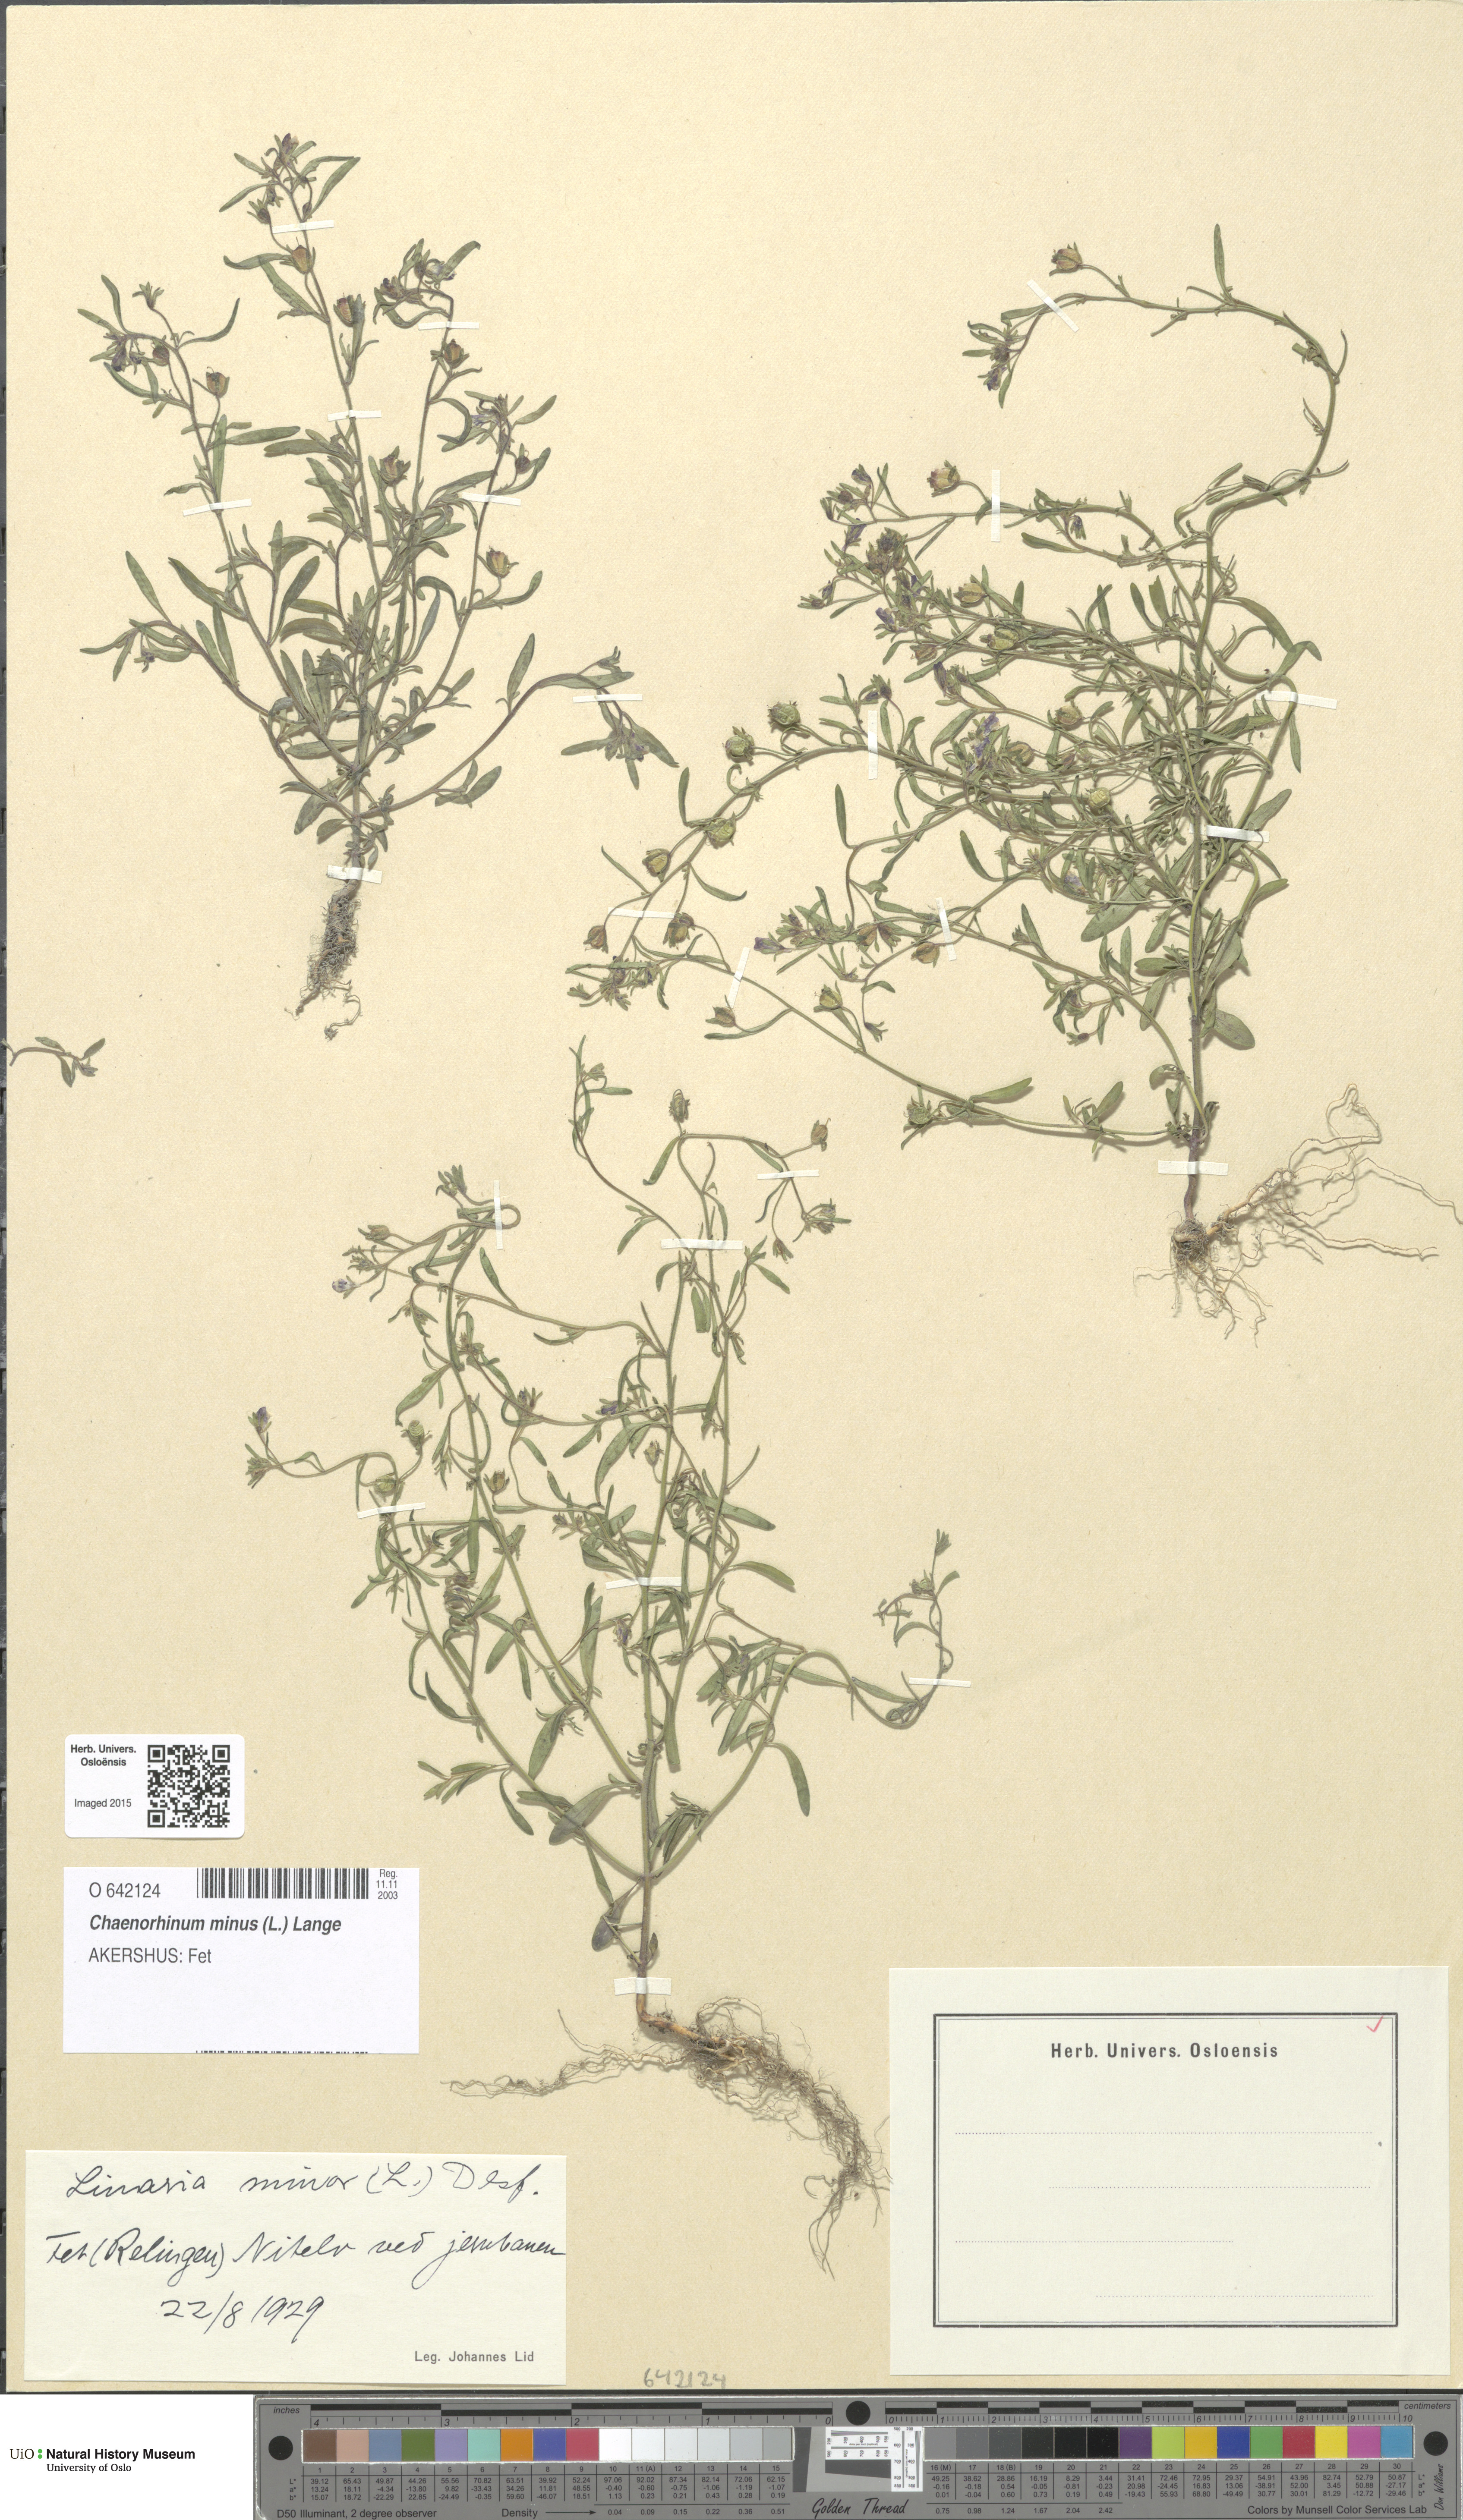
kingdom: Plantae
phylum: Tracheophyta
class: Magnoliopsida
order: Lamiales
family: Plantaginaceae
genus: Chaenorhinum
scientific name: Chaenorhinum minus
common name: Dwarf snapdragon
